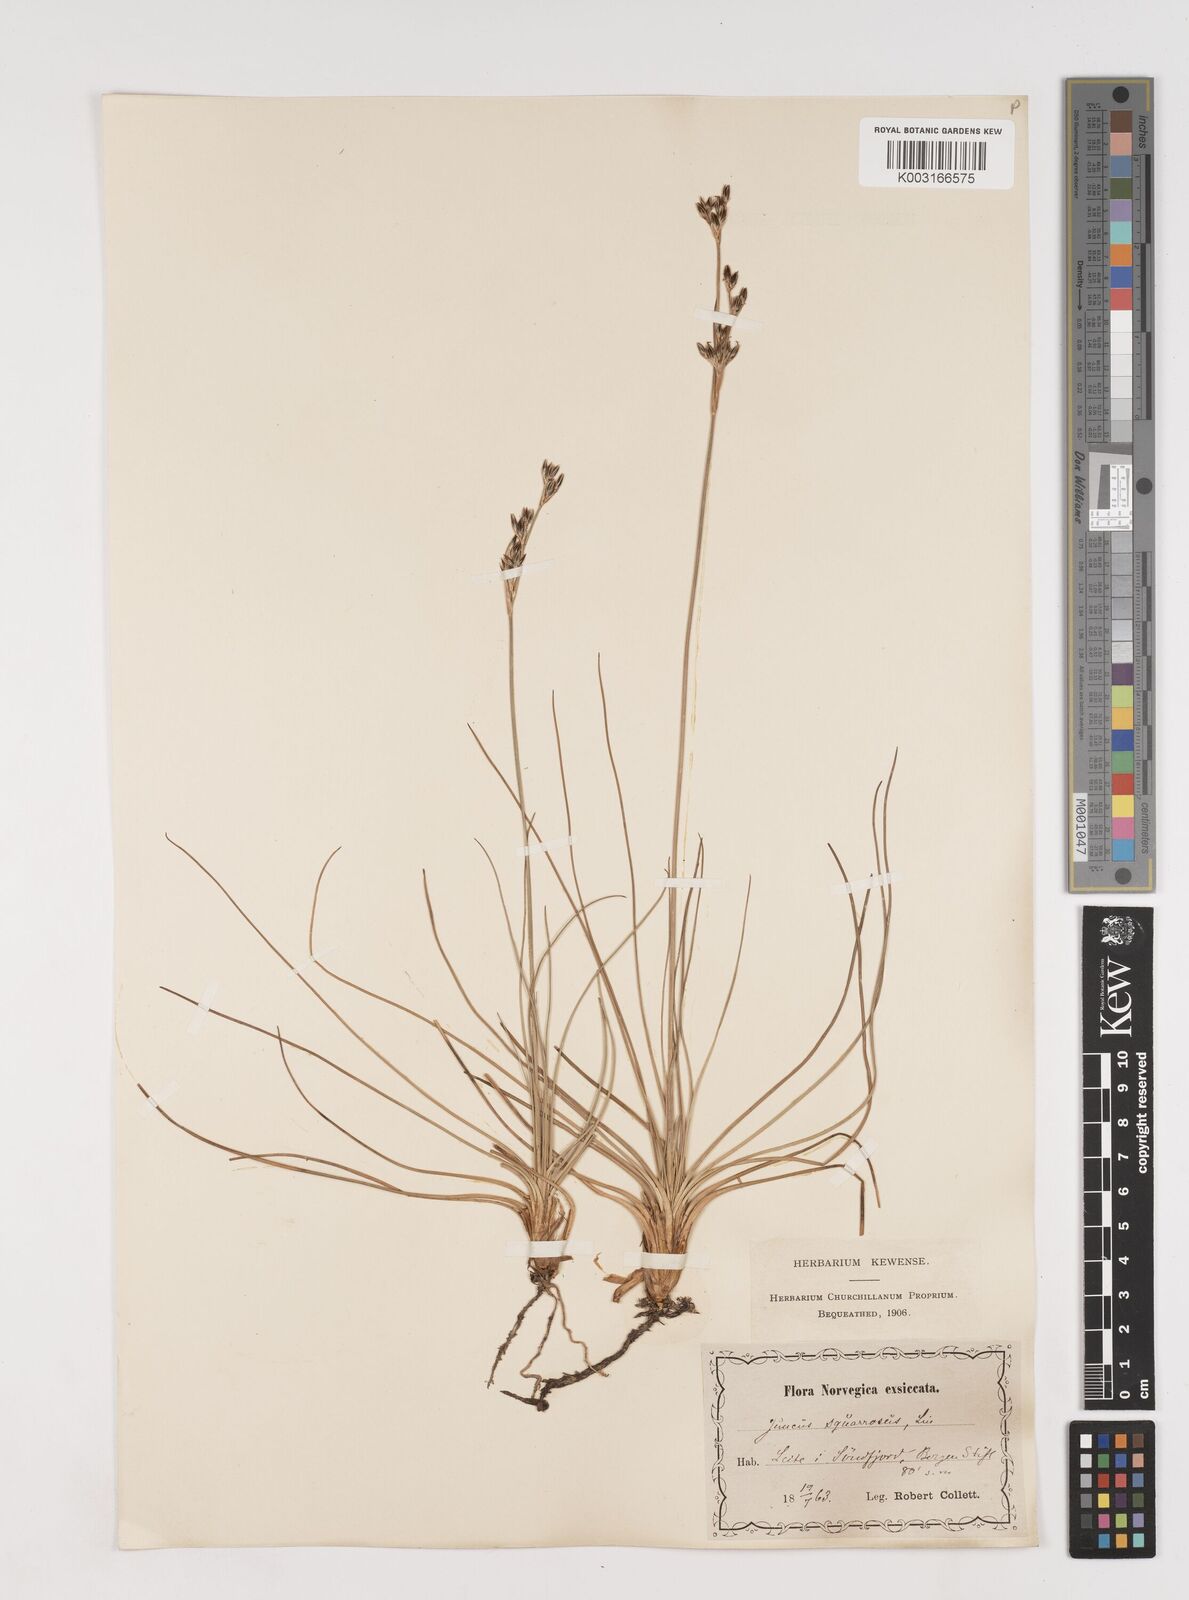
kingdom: Plantae
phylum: Tracheophyta
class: Liliopsida
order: Poales
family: Juncaceae
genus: Juncus
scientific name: Juncus squarrosus
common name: Heath rush
